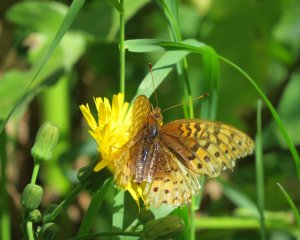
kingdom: Animalia
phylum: Arthropoda
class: Insecta
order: Lepidoptera
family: Nymphalidae
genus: Speyeria
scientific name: Speyeria cybele
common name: Great Spangled Fritillary
